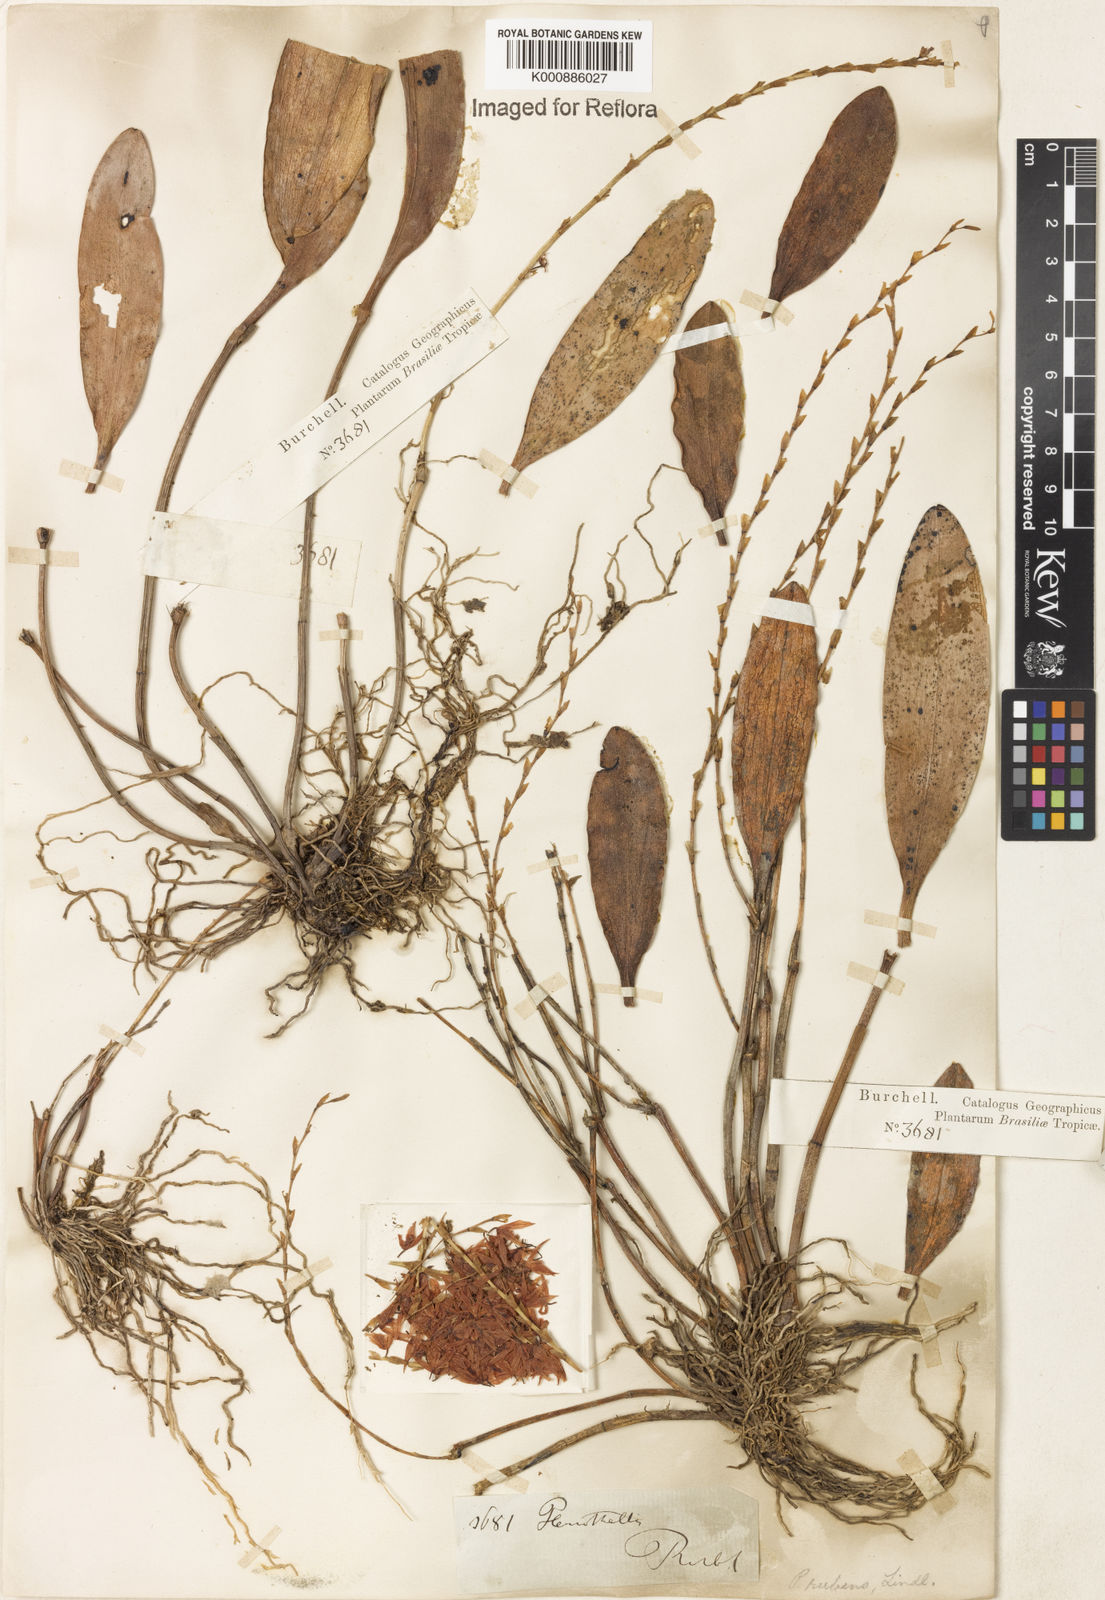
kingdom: Plantae
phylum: Tracheophyta
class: Liliopsida
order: Asparagales
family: Orchidaceae
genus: Stelis
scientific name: Stelis montserratii
